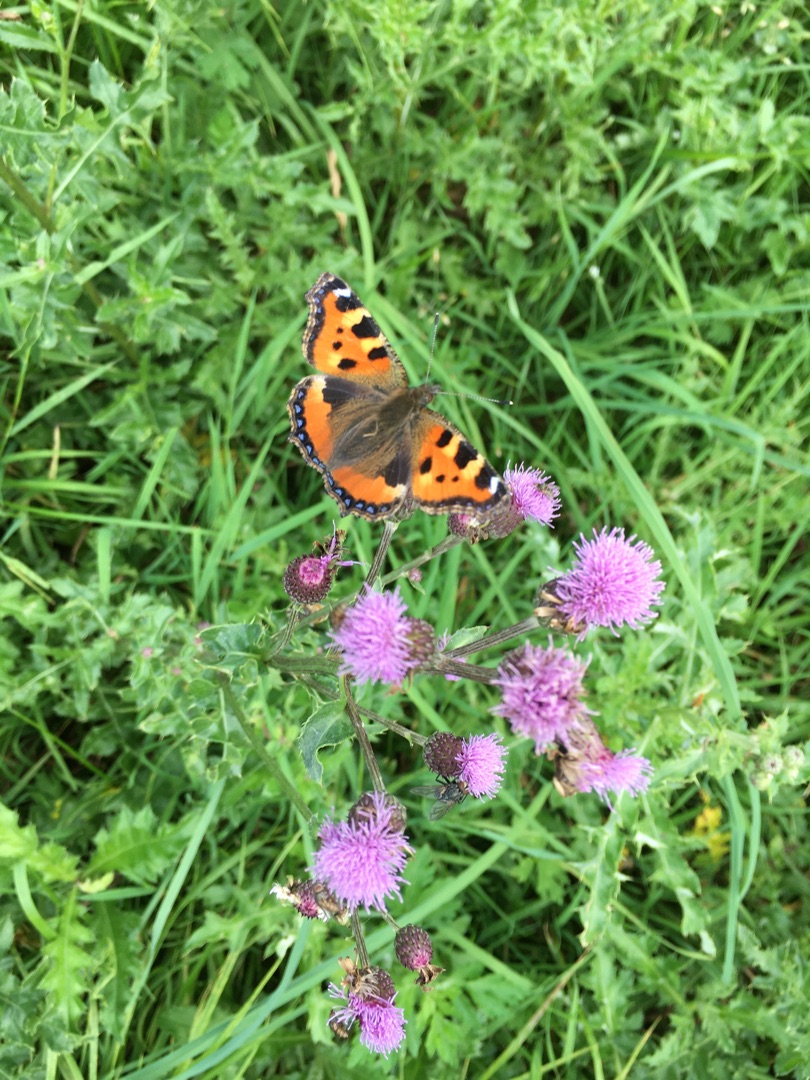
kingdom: Animalia
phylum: Arthropoda
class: Insecta
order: Lepidoptera
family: Nymphalidae
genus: Aglais
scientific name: Aglais urticae
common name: Nældens takvinge
